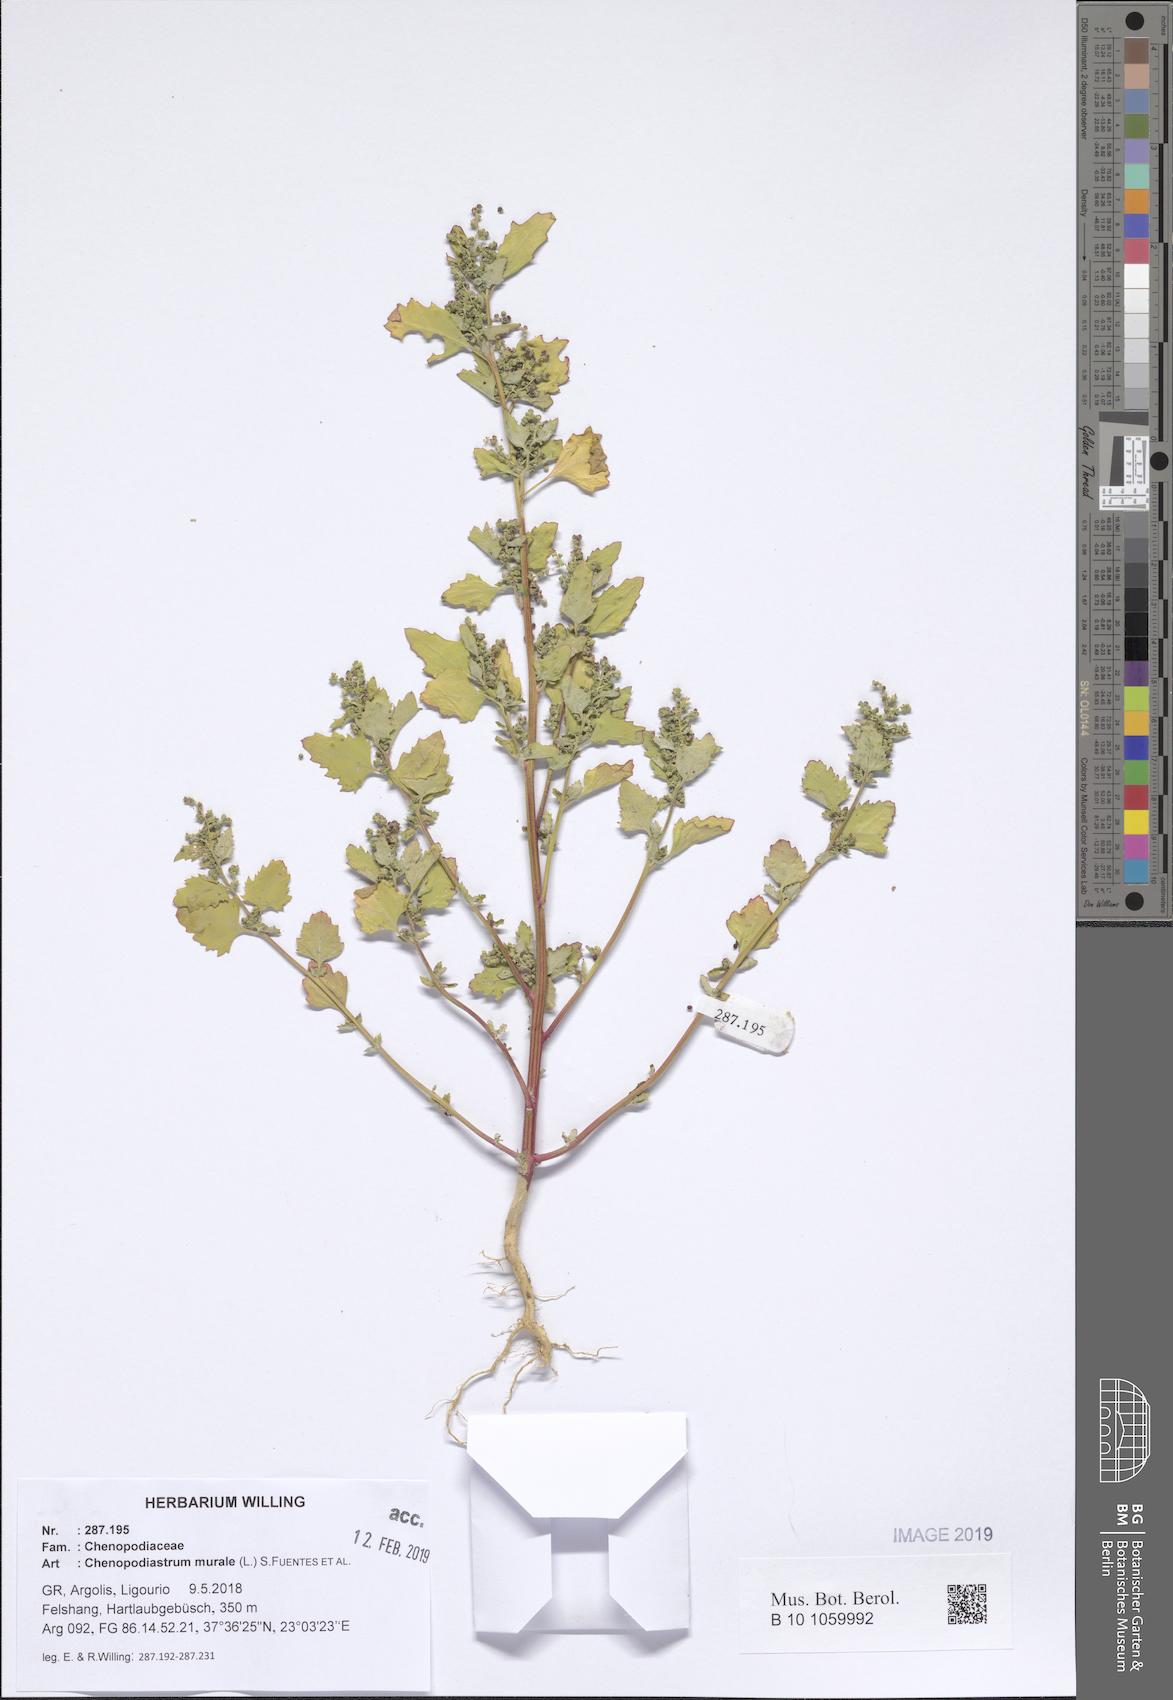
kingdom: Plantae
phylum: Tracheophyta
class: Magnoliopsida
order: Caryophyllales
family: Amaranthaceae
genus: Chenopodiastrum
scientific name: Chenopodiastrum murale
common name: Sowbane
